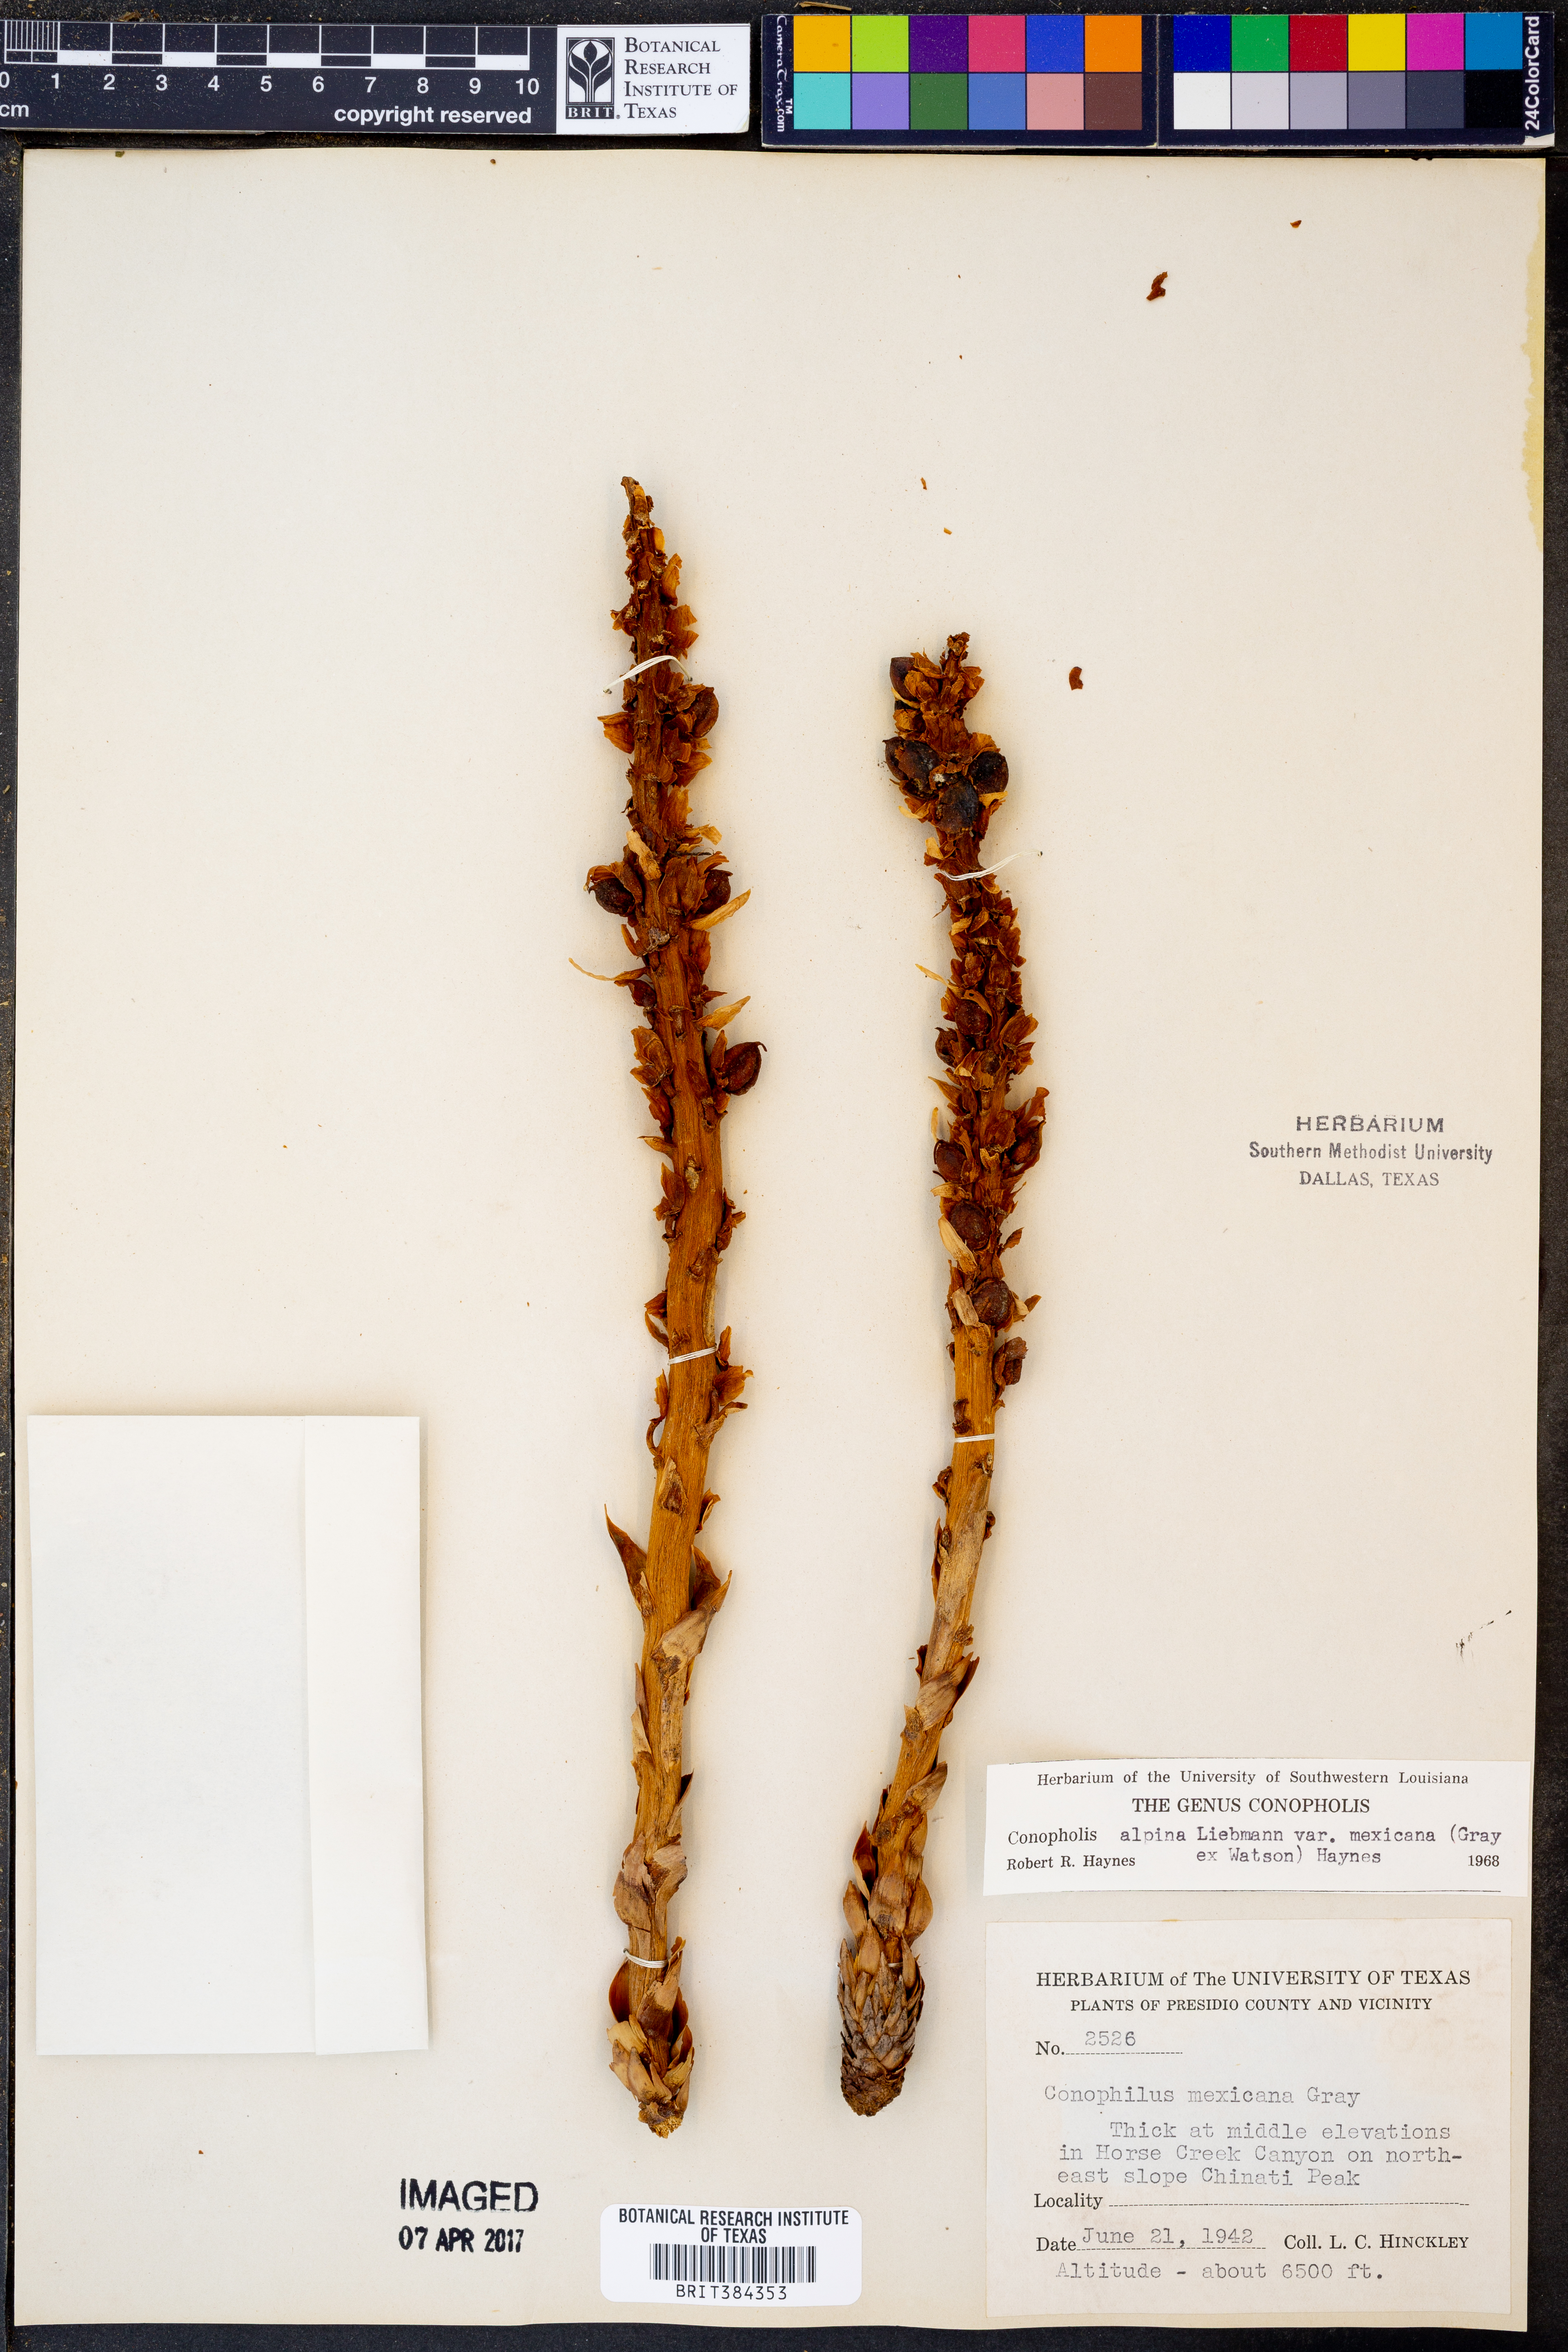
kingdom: Plantae
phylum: Tracheophyta
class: Magnoliopsida
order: Lamiales
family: Orobanchaceae
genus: Conopholis
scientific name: Conopholis alpina
